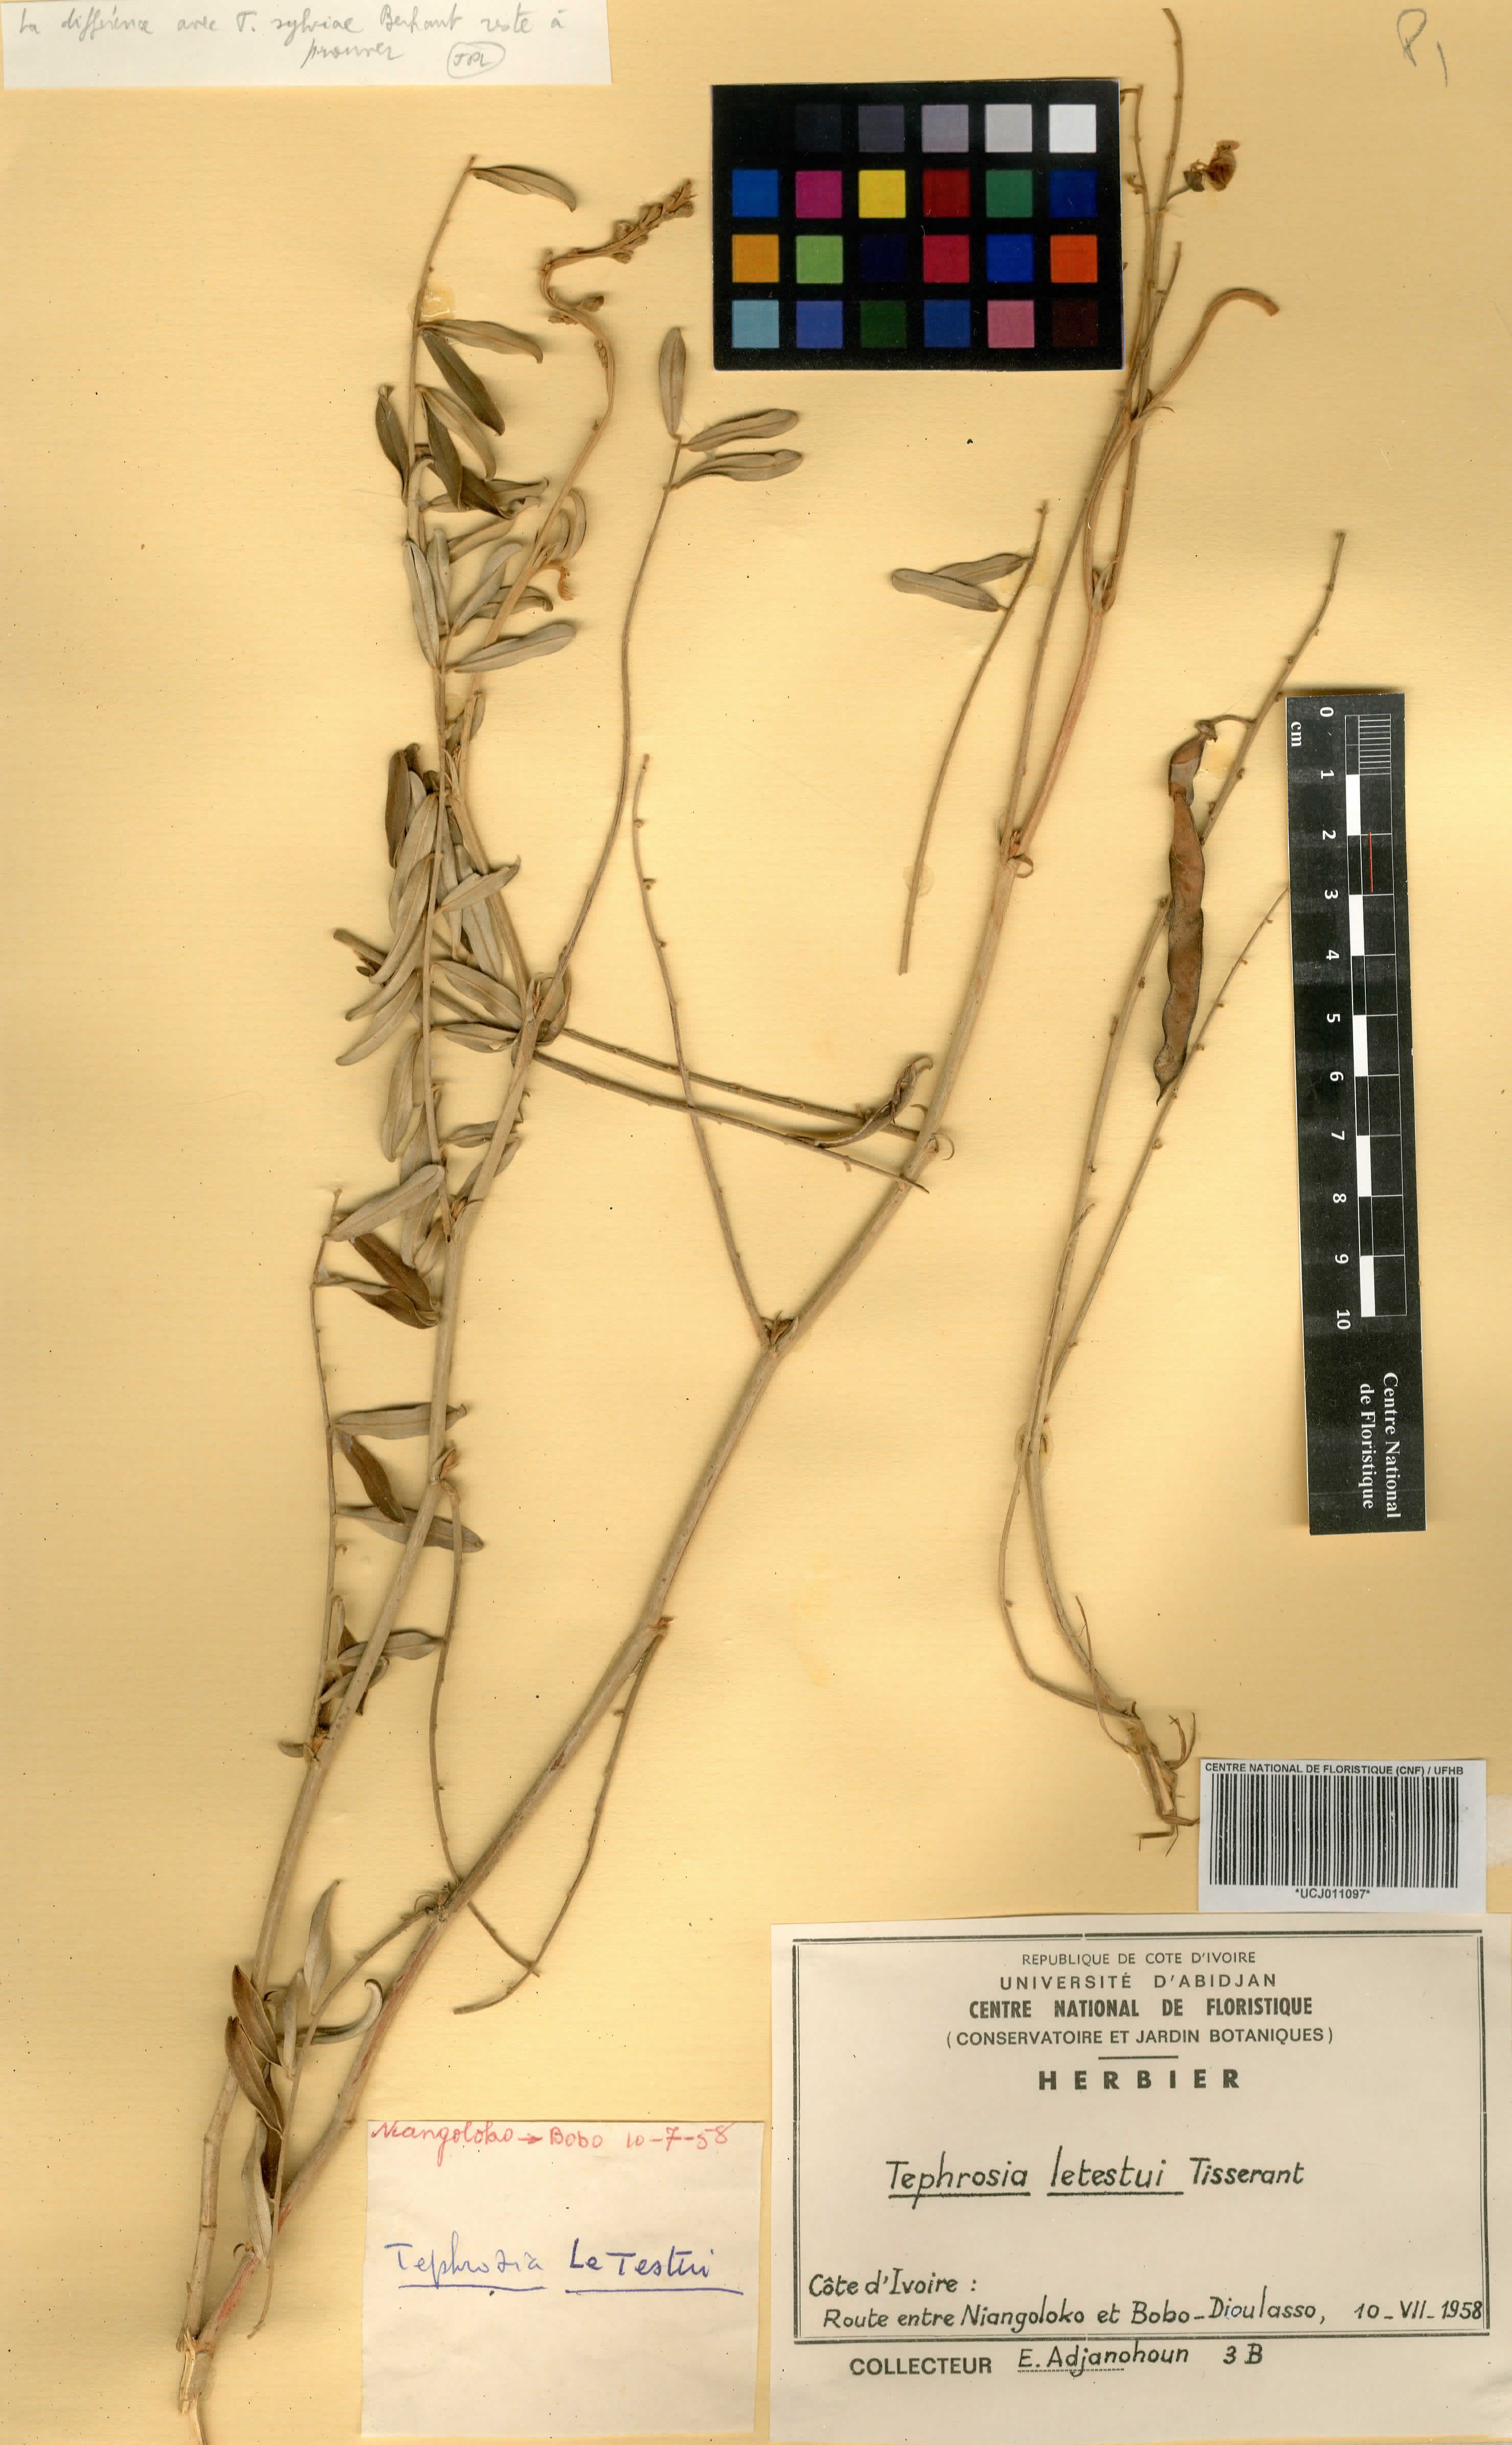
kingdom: Plantae
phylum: Tracheophyta
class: Magnoliopsida
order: Fabales
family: Fabaceae
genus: Tephrosia
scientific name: Tephrosia letestui
